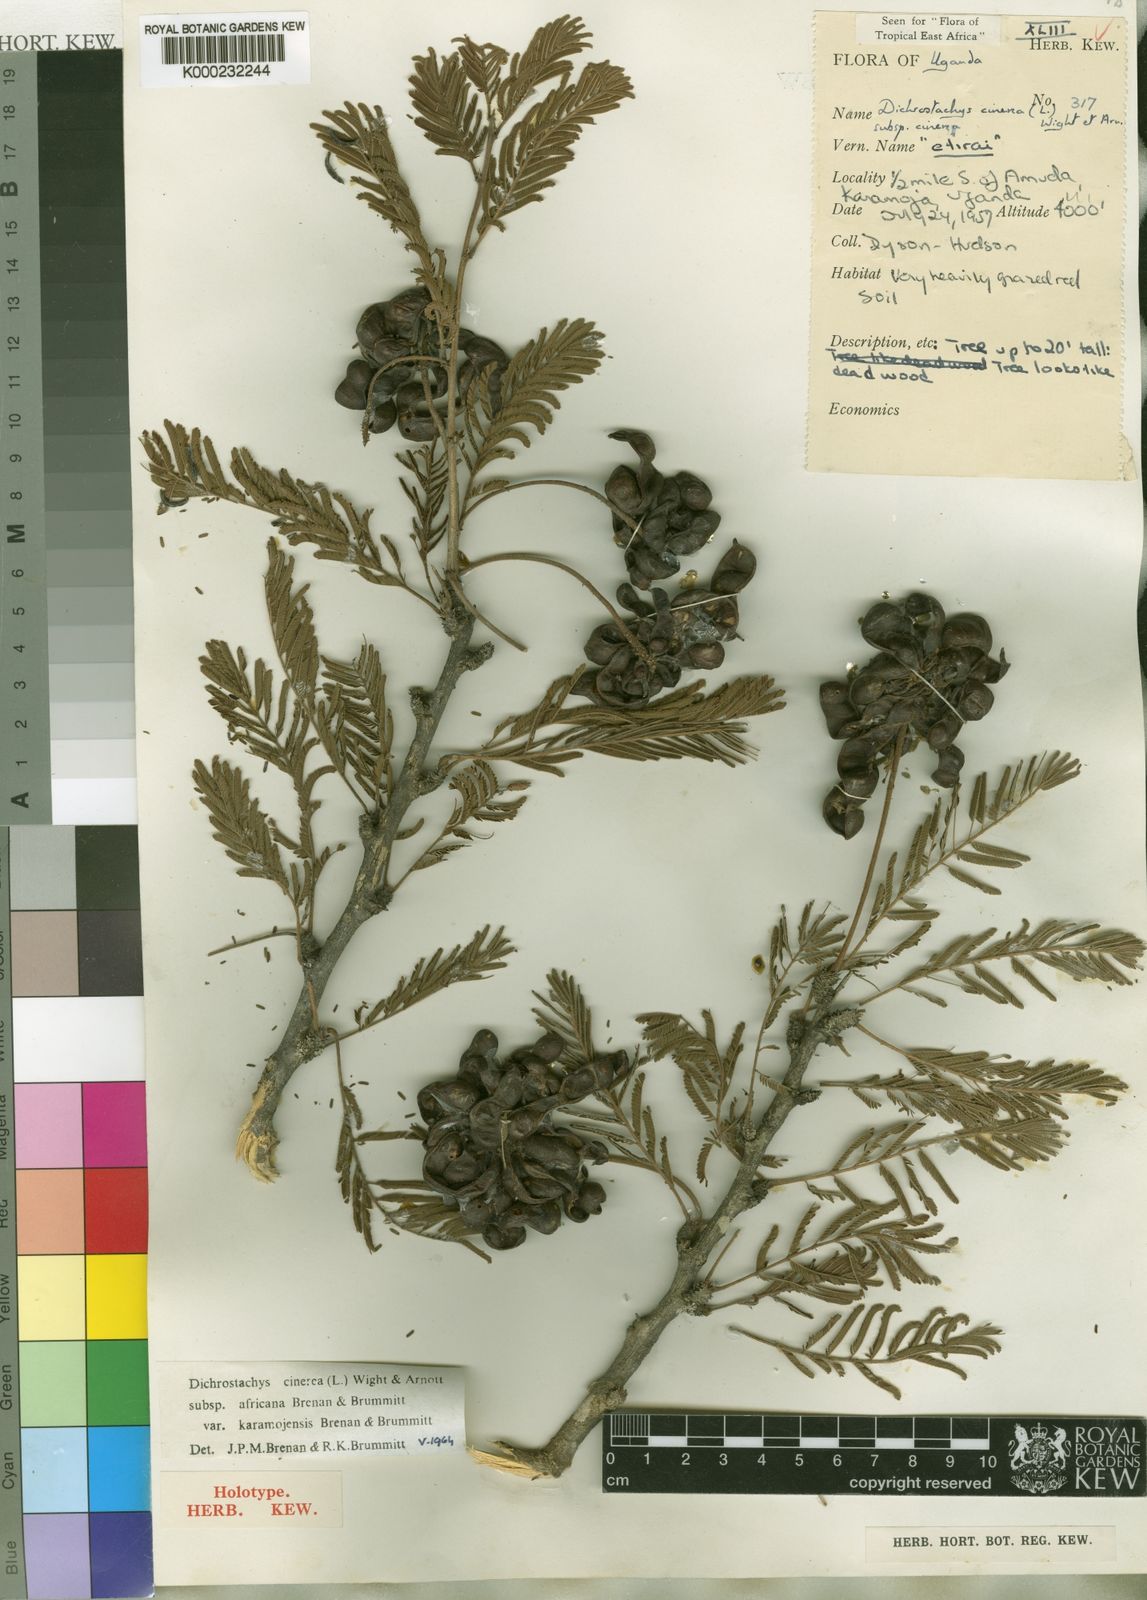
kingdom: Plantae
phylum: Tracheophyta
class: Magnoliopsida
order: Fabales
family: Fabaceae
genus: Dichrostachys
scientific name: Dichrostachys
